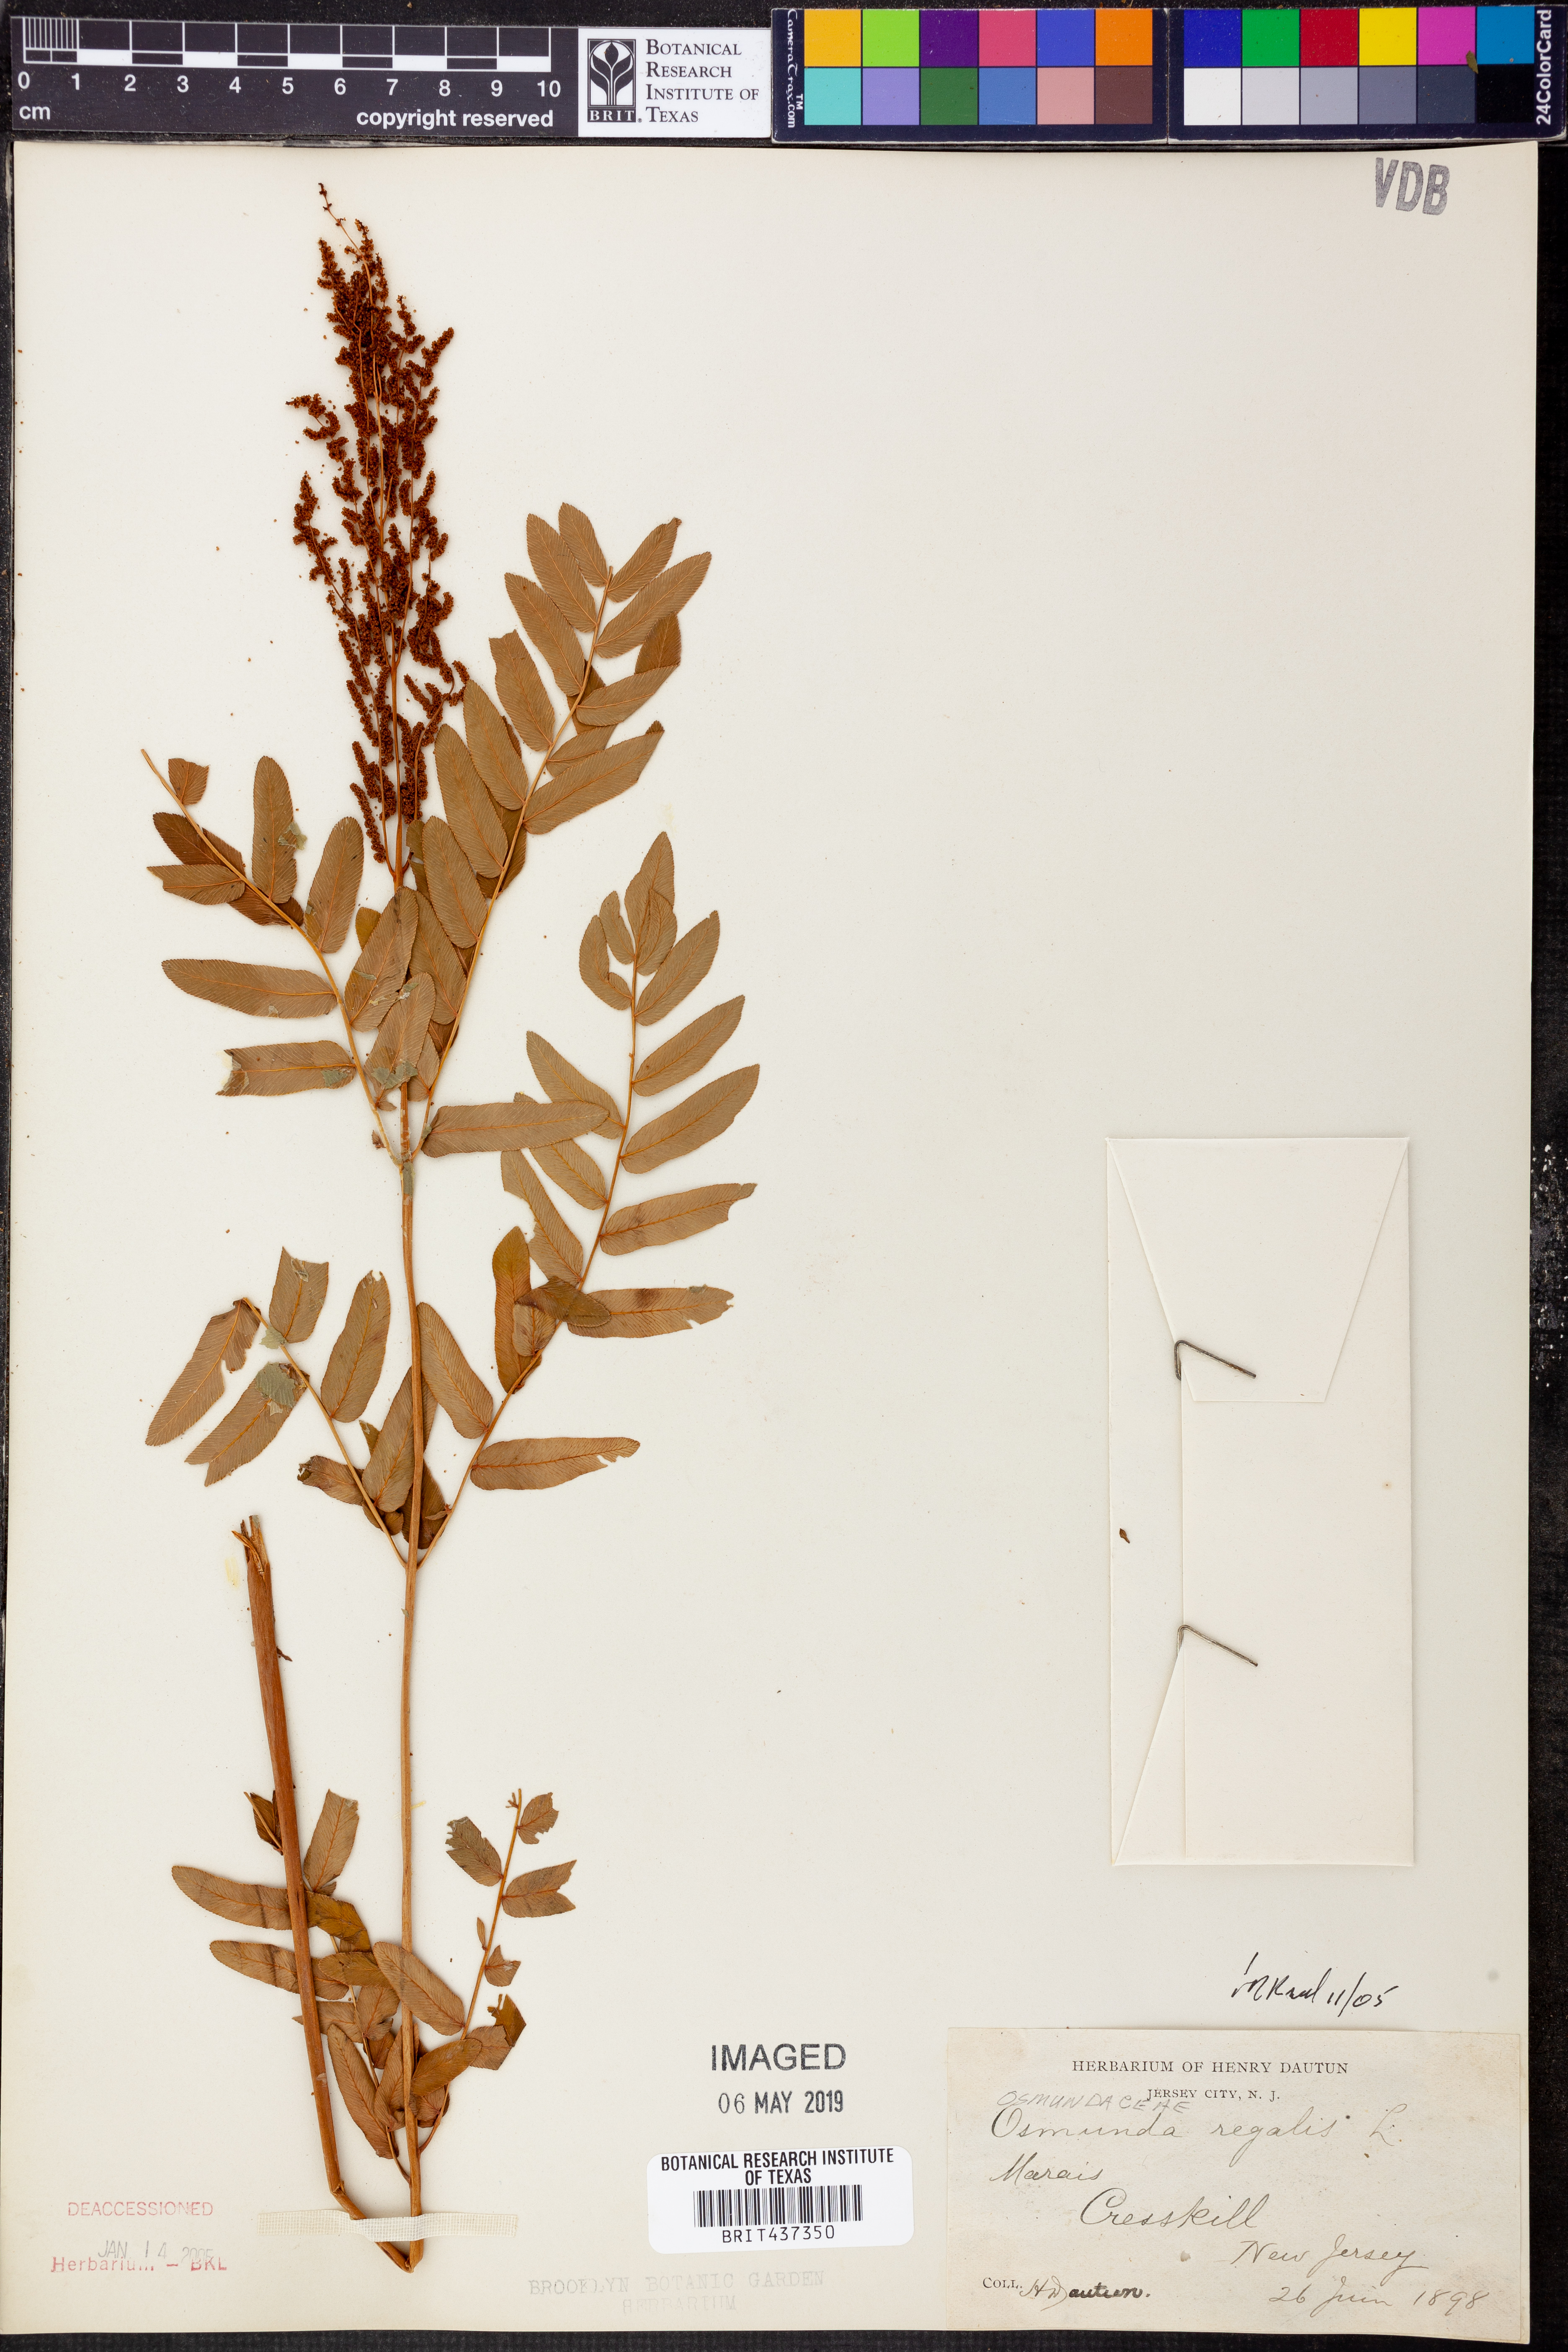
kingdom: Plantae
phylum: Tracheophyta
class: Polypodiopsida
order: Osmundales
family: Osmundaceae
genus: Osmunda
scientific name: Osmunda regalis
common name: Royal fern
